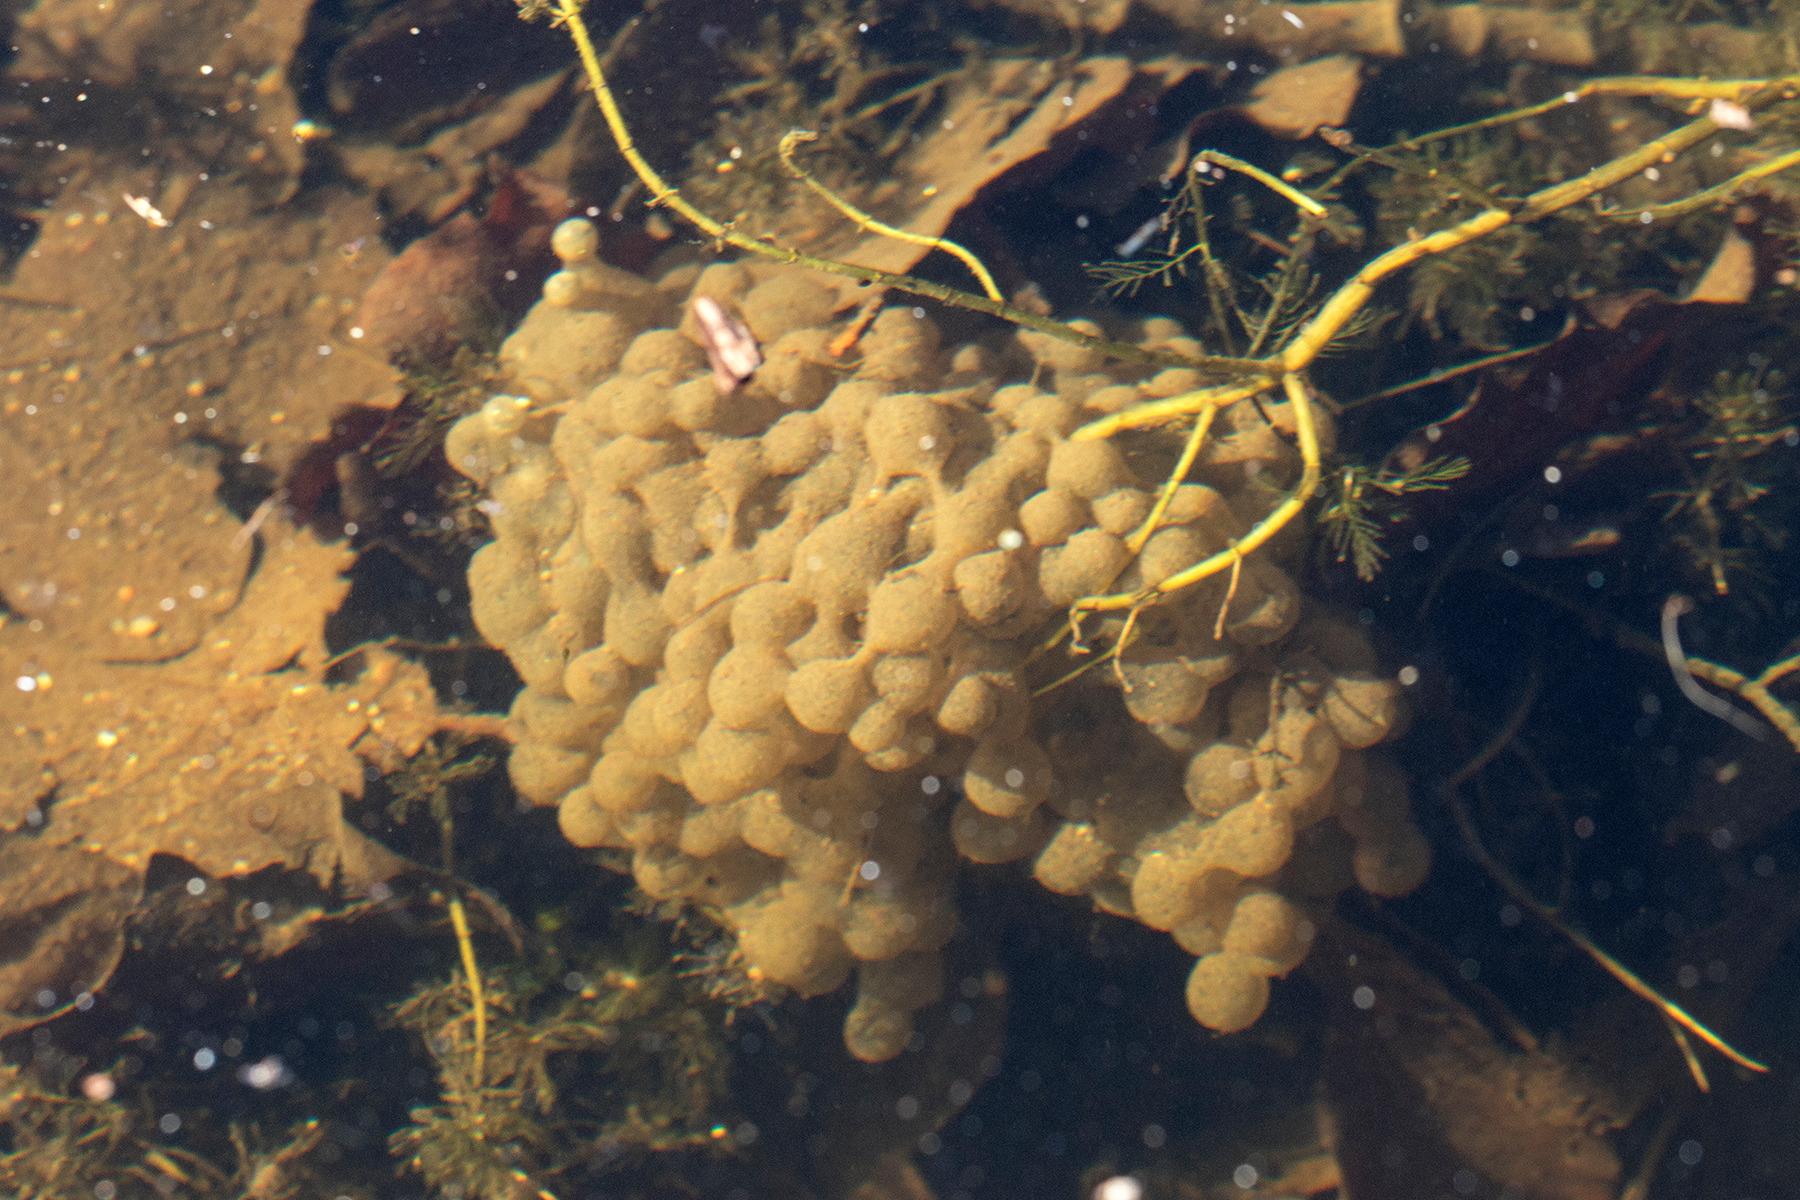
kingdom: Animalia
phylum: Chordata
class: Amphibia
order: Anura
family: Ranidae
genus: Rana
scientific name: Rana dalmatina
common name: Springfrø
